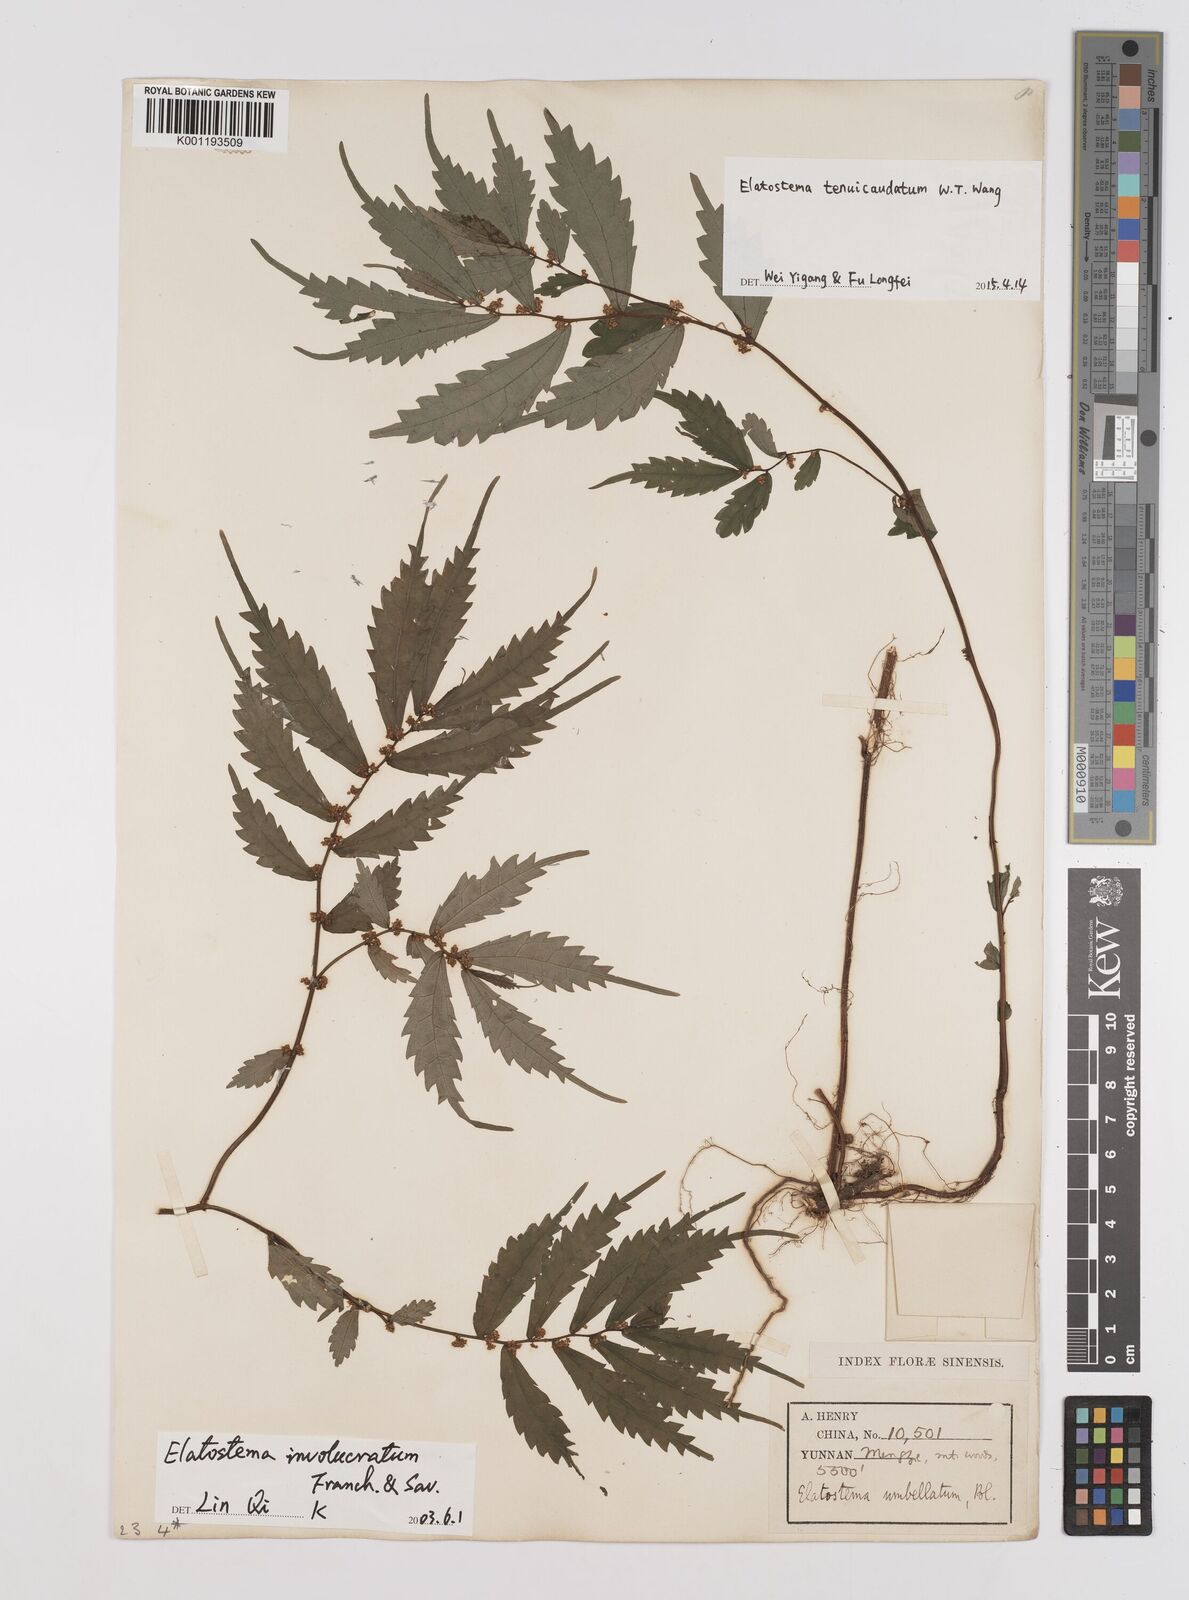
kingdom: Plantae
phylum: Tracheophyta
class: Magnoliopsida
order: Rosales
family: Urticaceae
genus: Elatostema
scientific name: Elatostema tenuicaudatum
